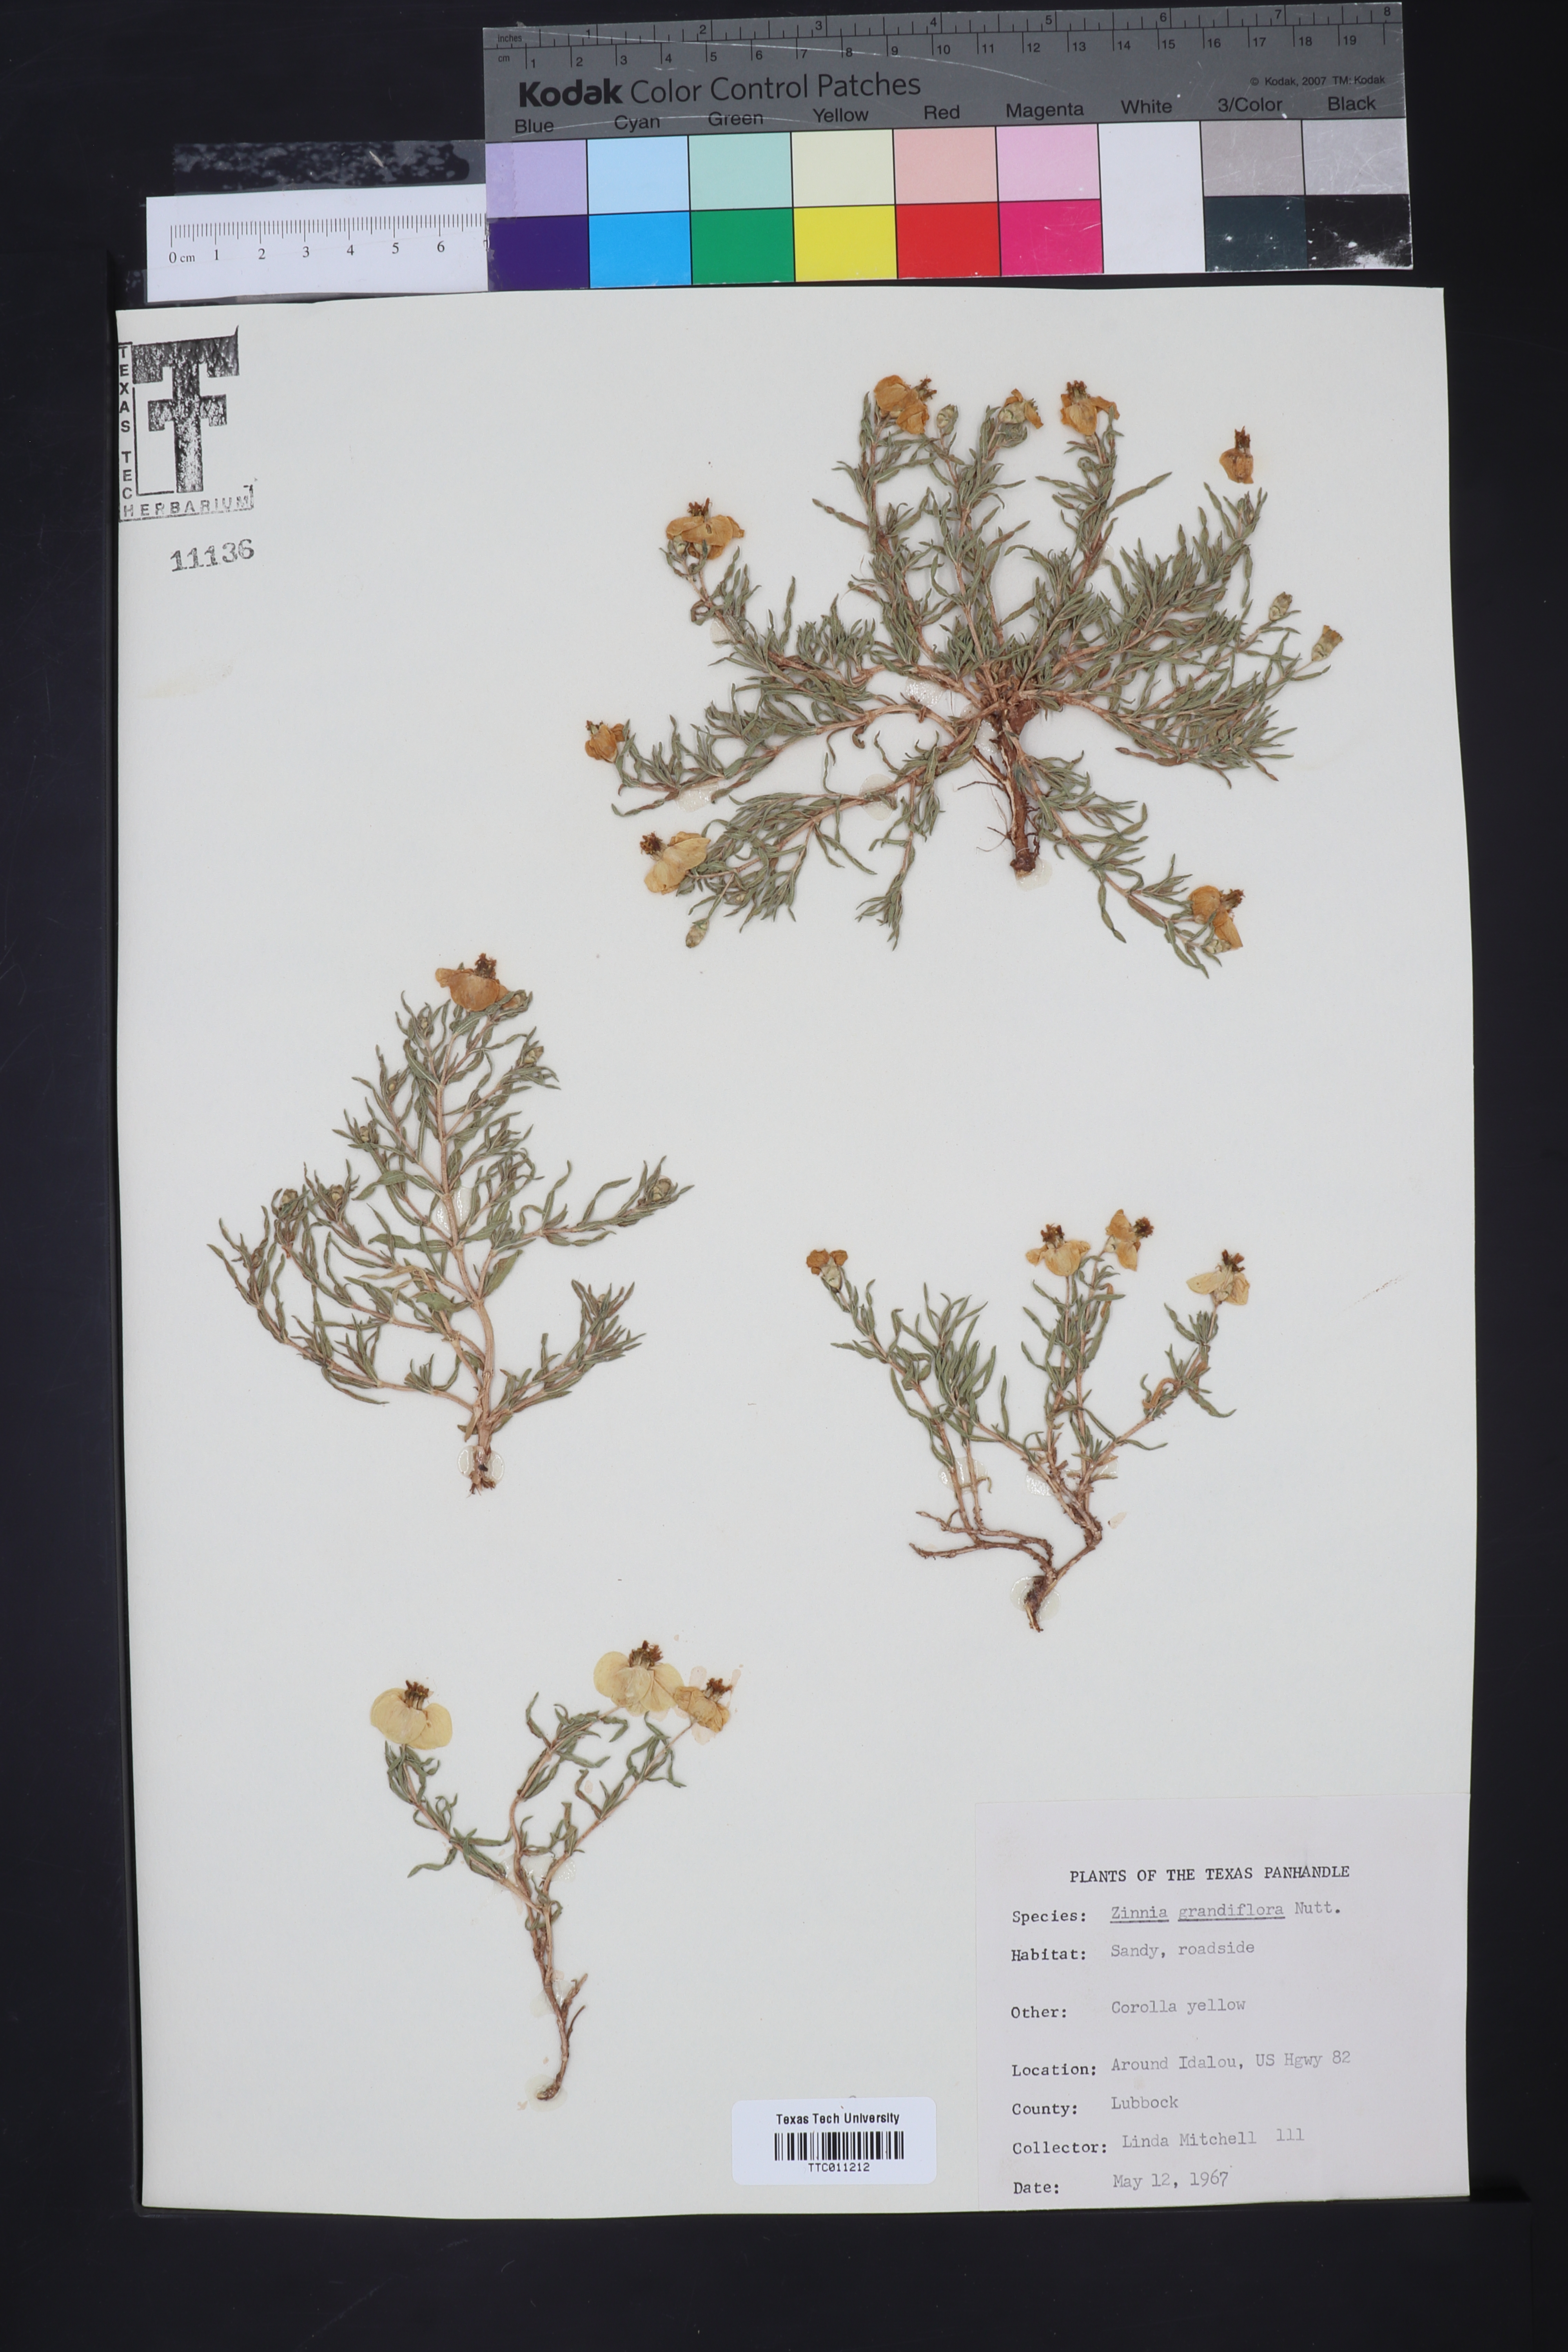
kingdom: Plantae
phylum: Tracheophyta
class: Magnoliopsida
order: Asterales
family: Asteraceae
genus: Zinnia
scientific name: Zinnia grandiflora
